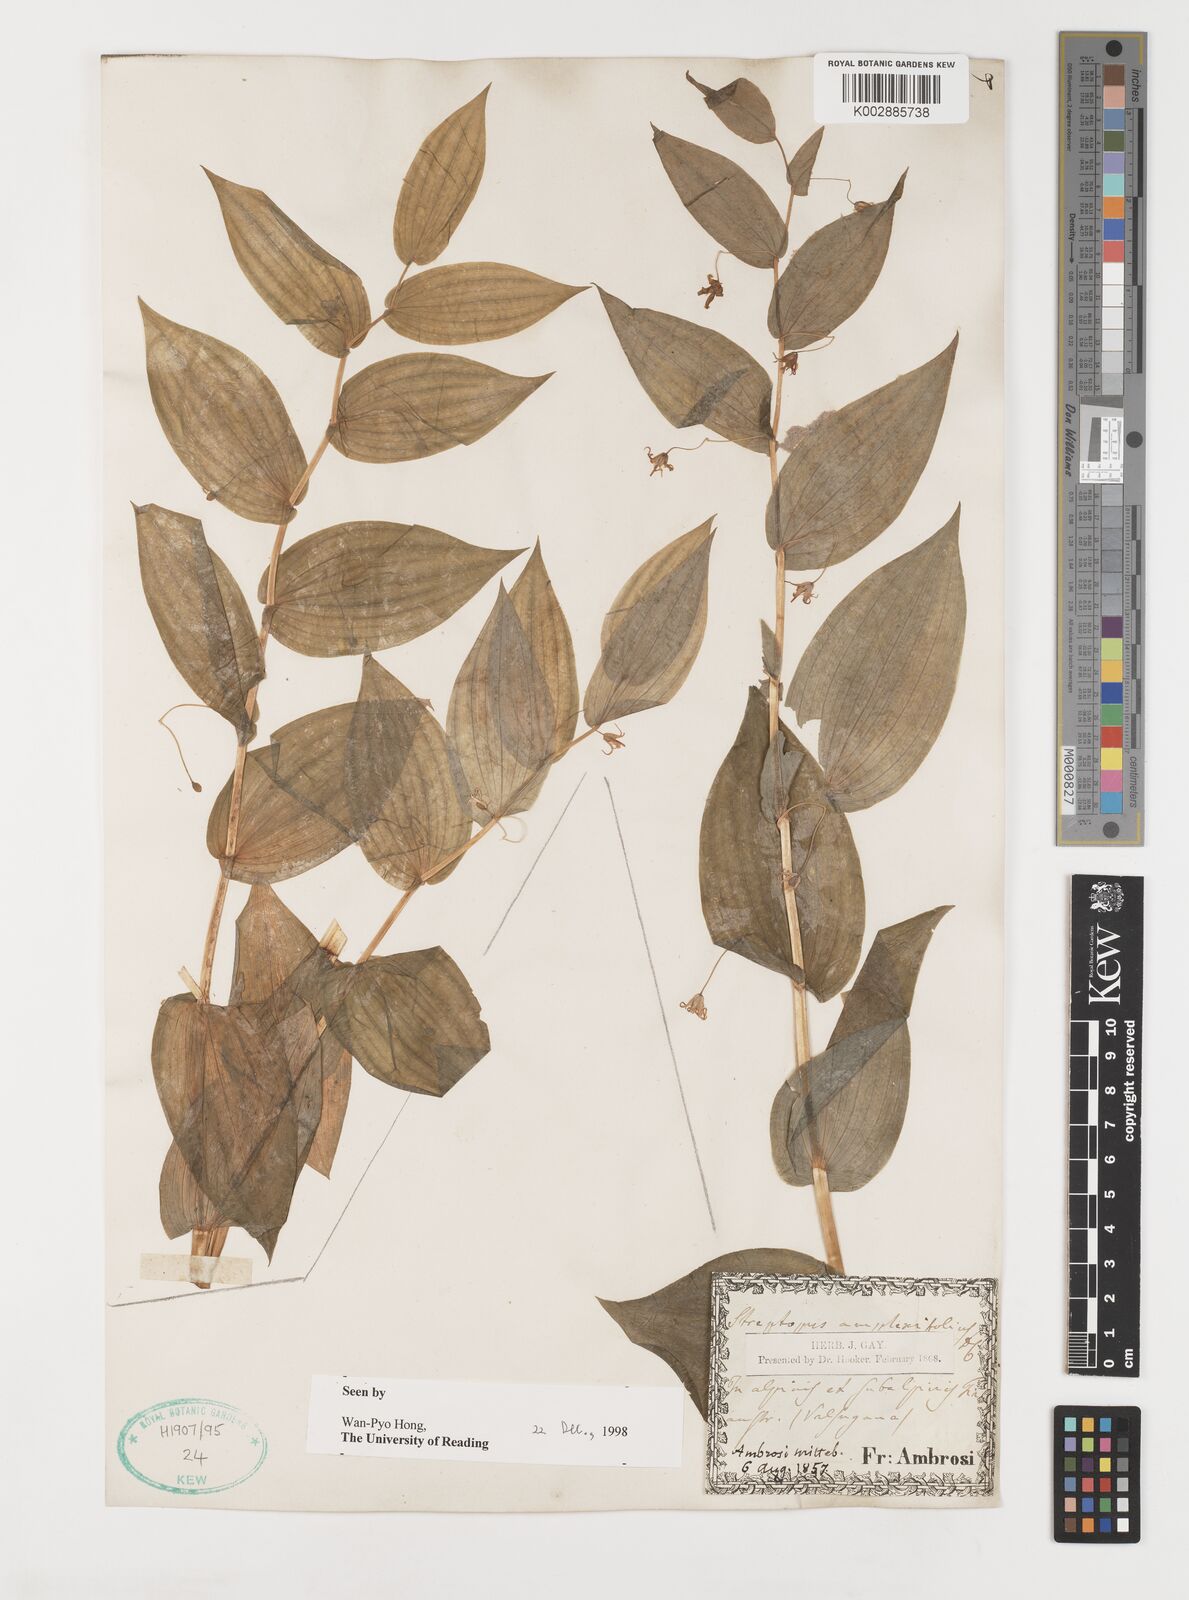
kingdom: Plantae
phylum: Tracheophyta
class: Liliopsida
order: Liliales
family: Liliaceae
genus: Streptopus
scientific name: Streptopus amplexifolius
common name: Clasp twisted stalk
